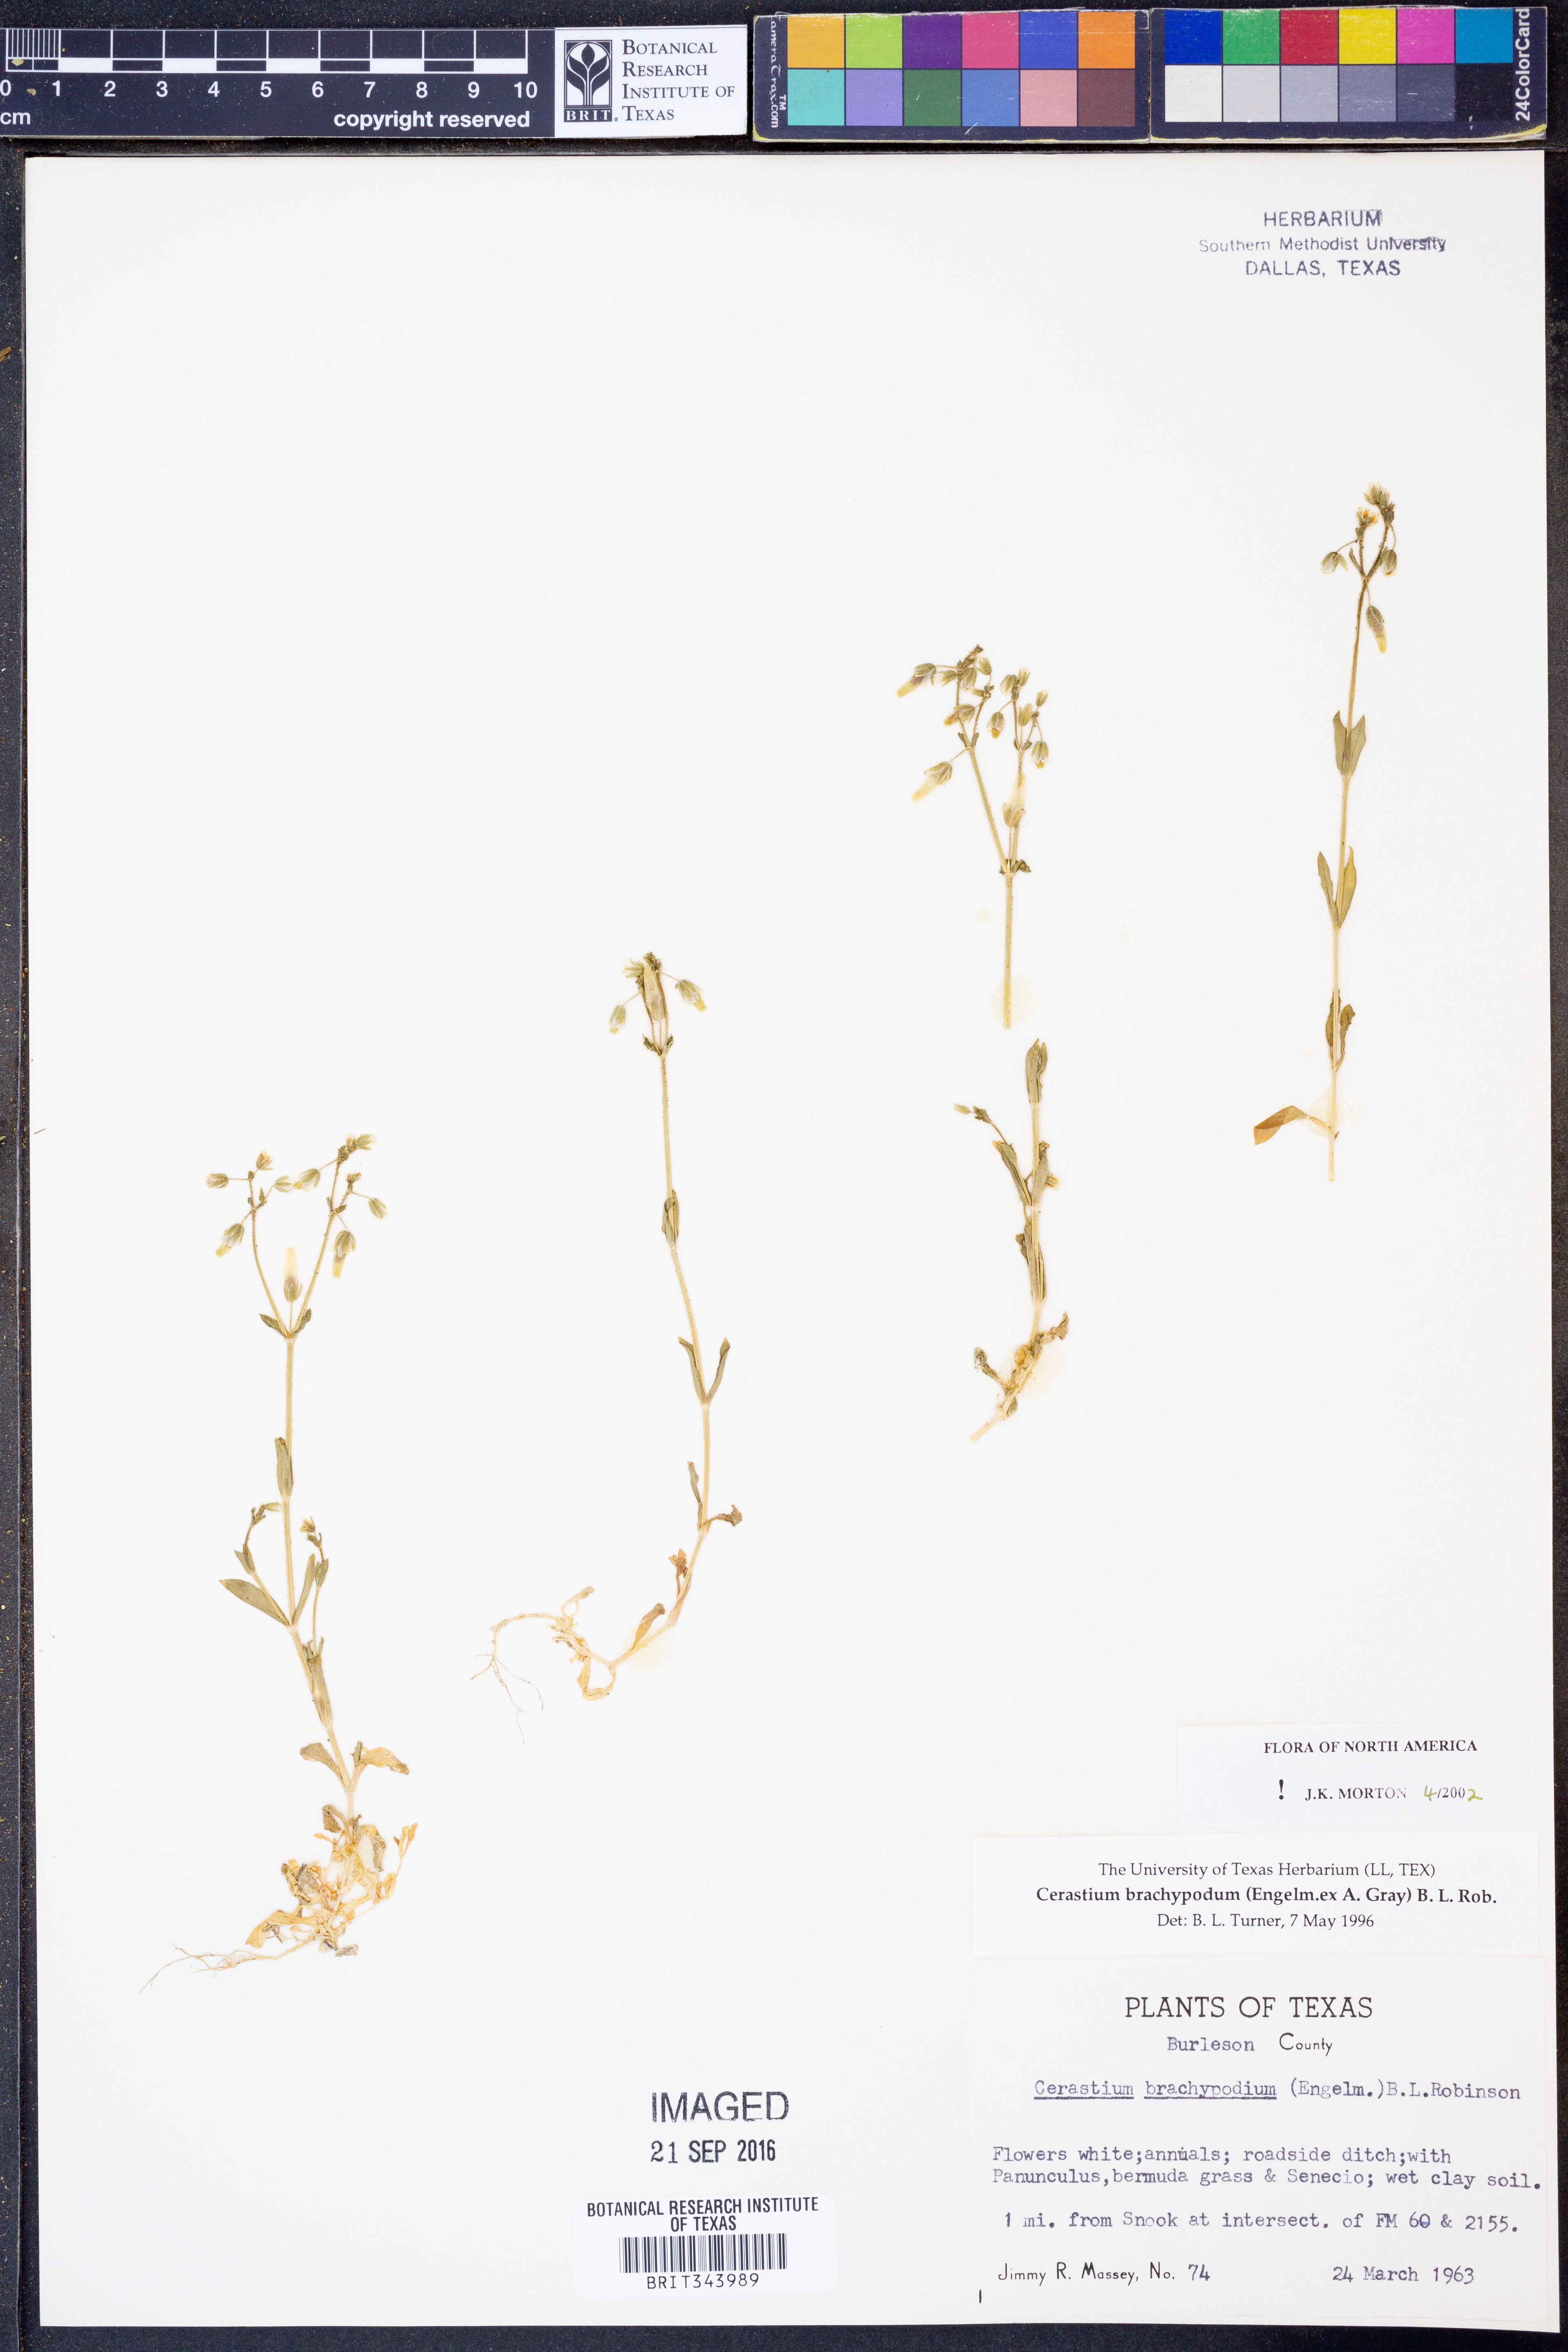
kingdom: Plantae
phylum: Tracheophyta
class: Magnoliopsida
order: Caryophyllales
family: Caryophyllaceae
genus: Cerastium
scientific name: Cerastium brachypodum
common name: Short-pedicelled nodding chickweed
